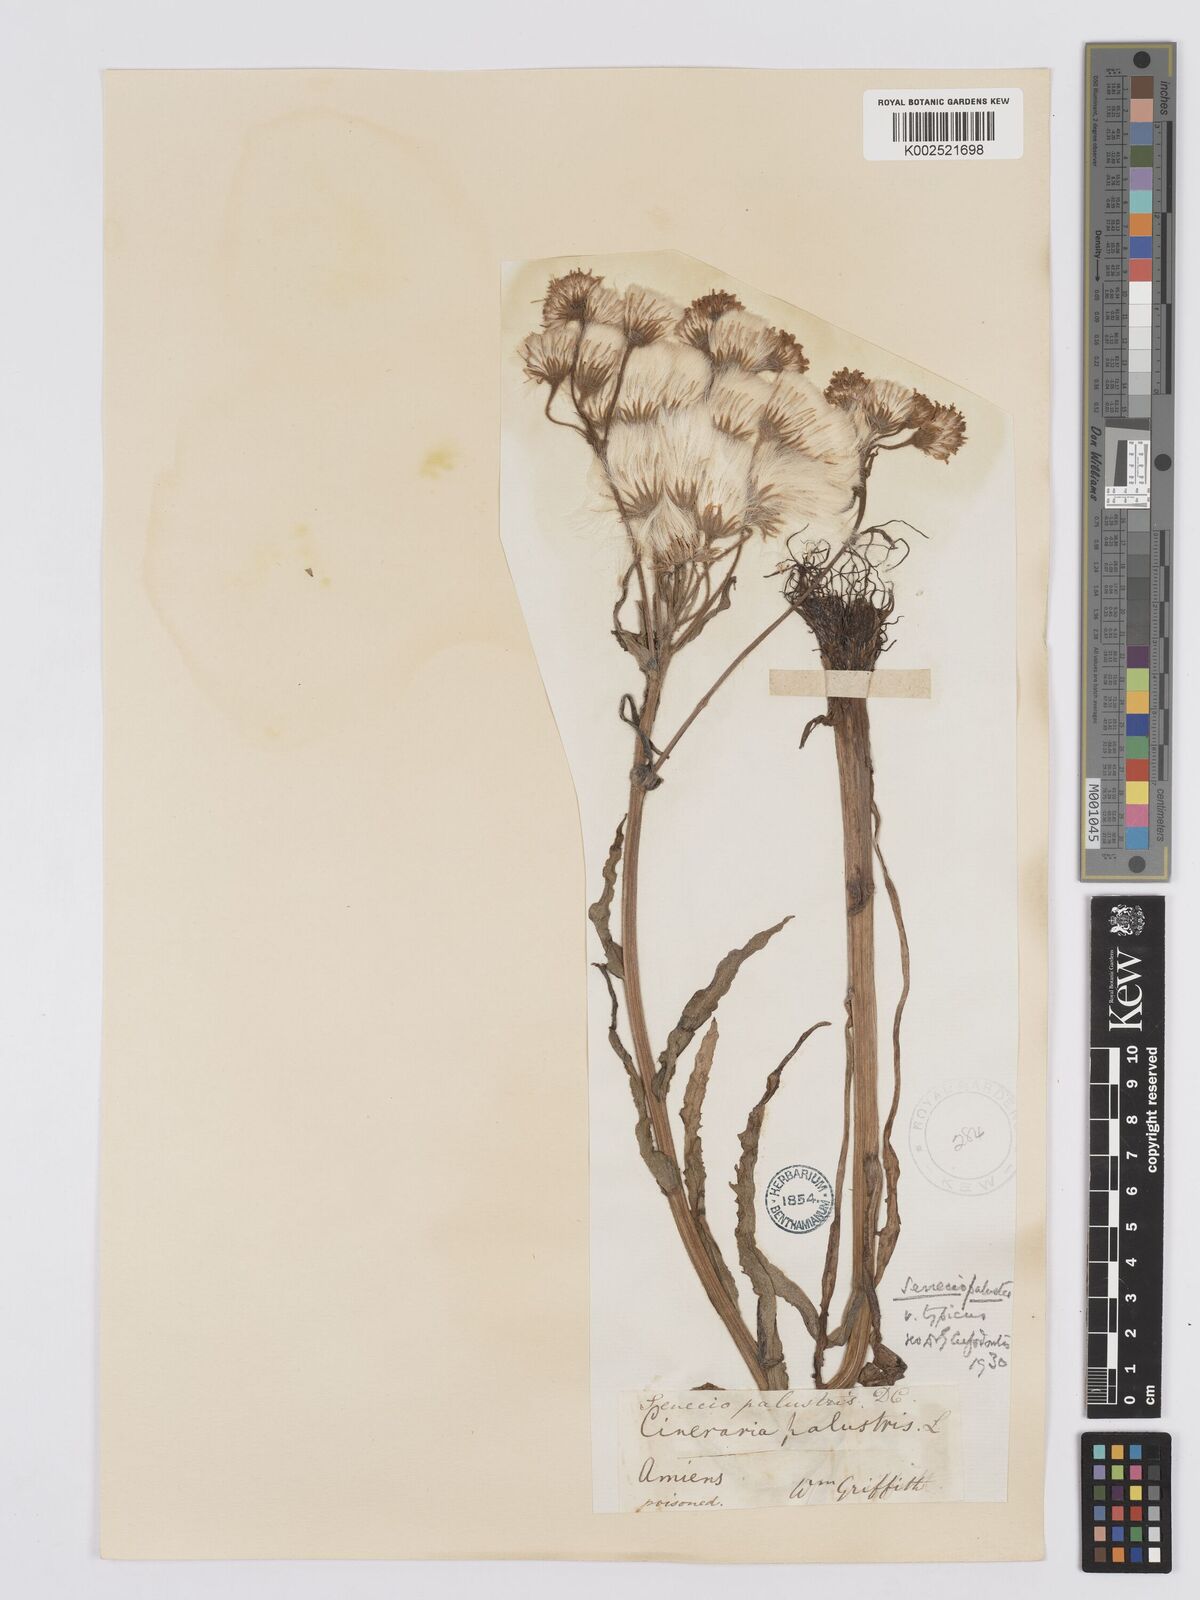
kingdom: Plantae
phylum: Tracheophyta
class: Magnoliopsida
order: Asterales
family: Asteraceae
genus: Tephroseris
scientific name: Tephroseris palustris
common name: Marsh fleawort
